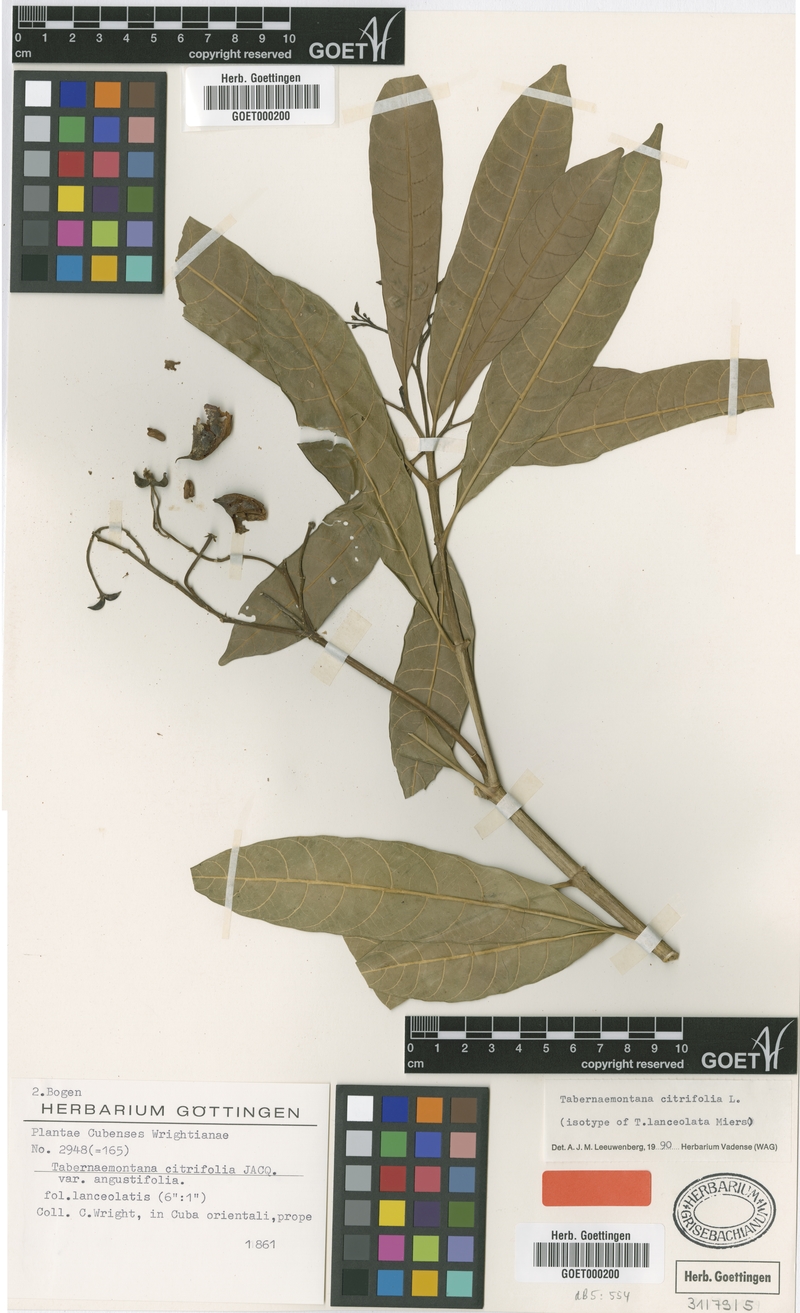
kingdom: Plantae
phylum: Tracheophyta
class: Magnoliopsida
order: Gentianales
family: Apocynaceae
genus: Tabernaemontana
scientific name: Tabernaemontana citrifolia
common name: Milky tree
